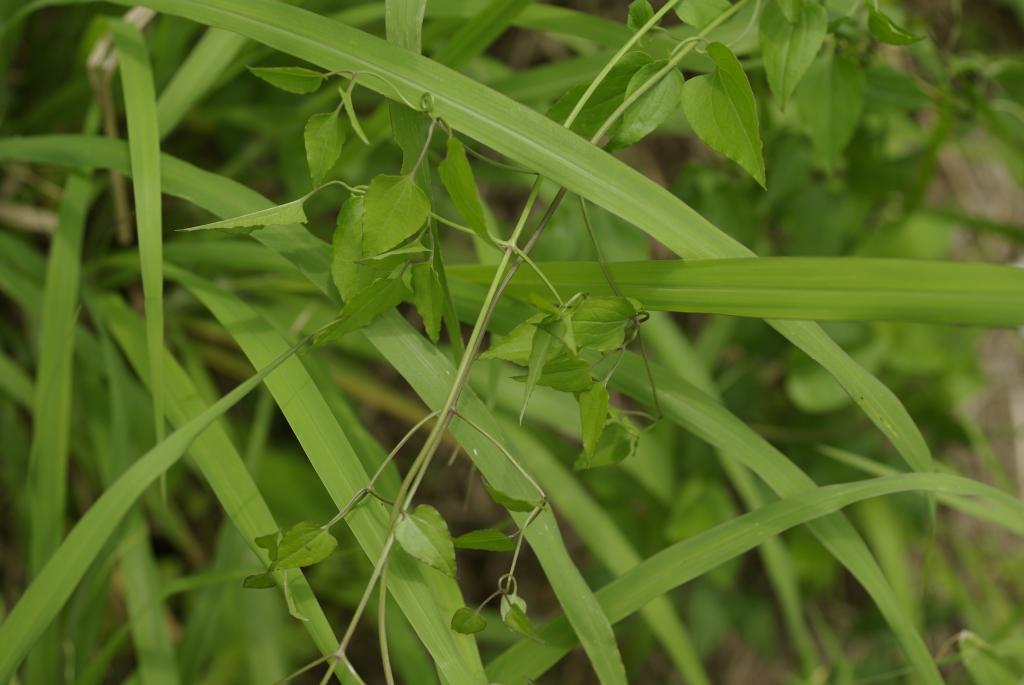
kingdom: Plantae
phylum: Tracheophyta
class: Magnoliopsida
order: Ranunculales
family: Ranunculaceae
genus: Clematis
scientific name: Clematis chinensis
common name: Chinese clematis
